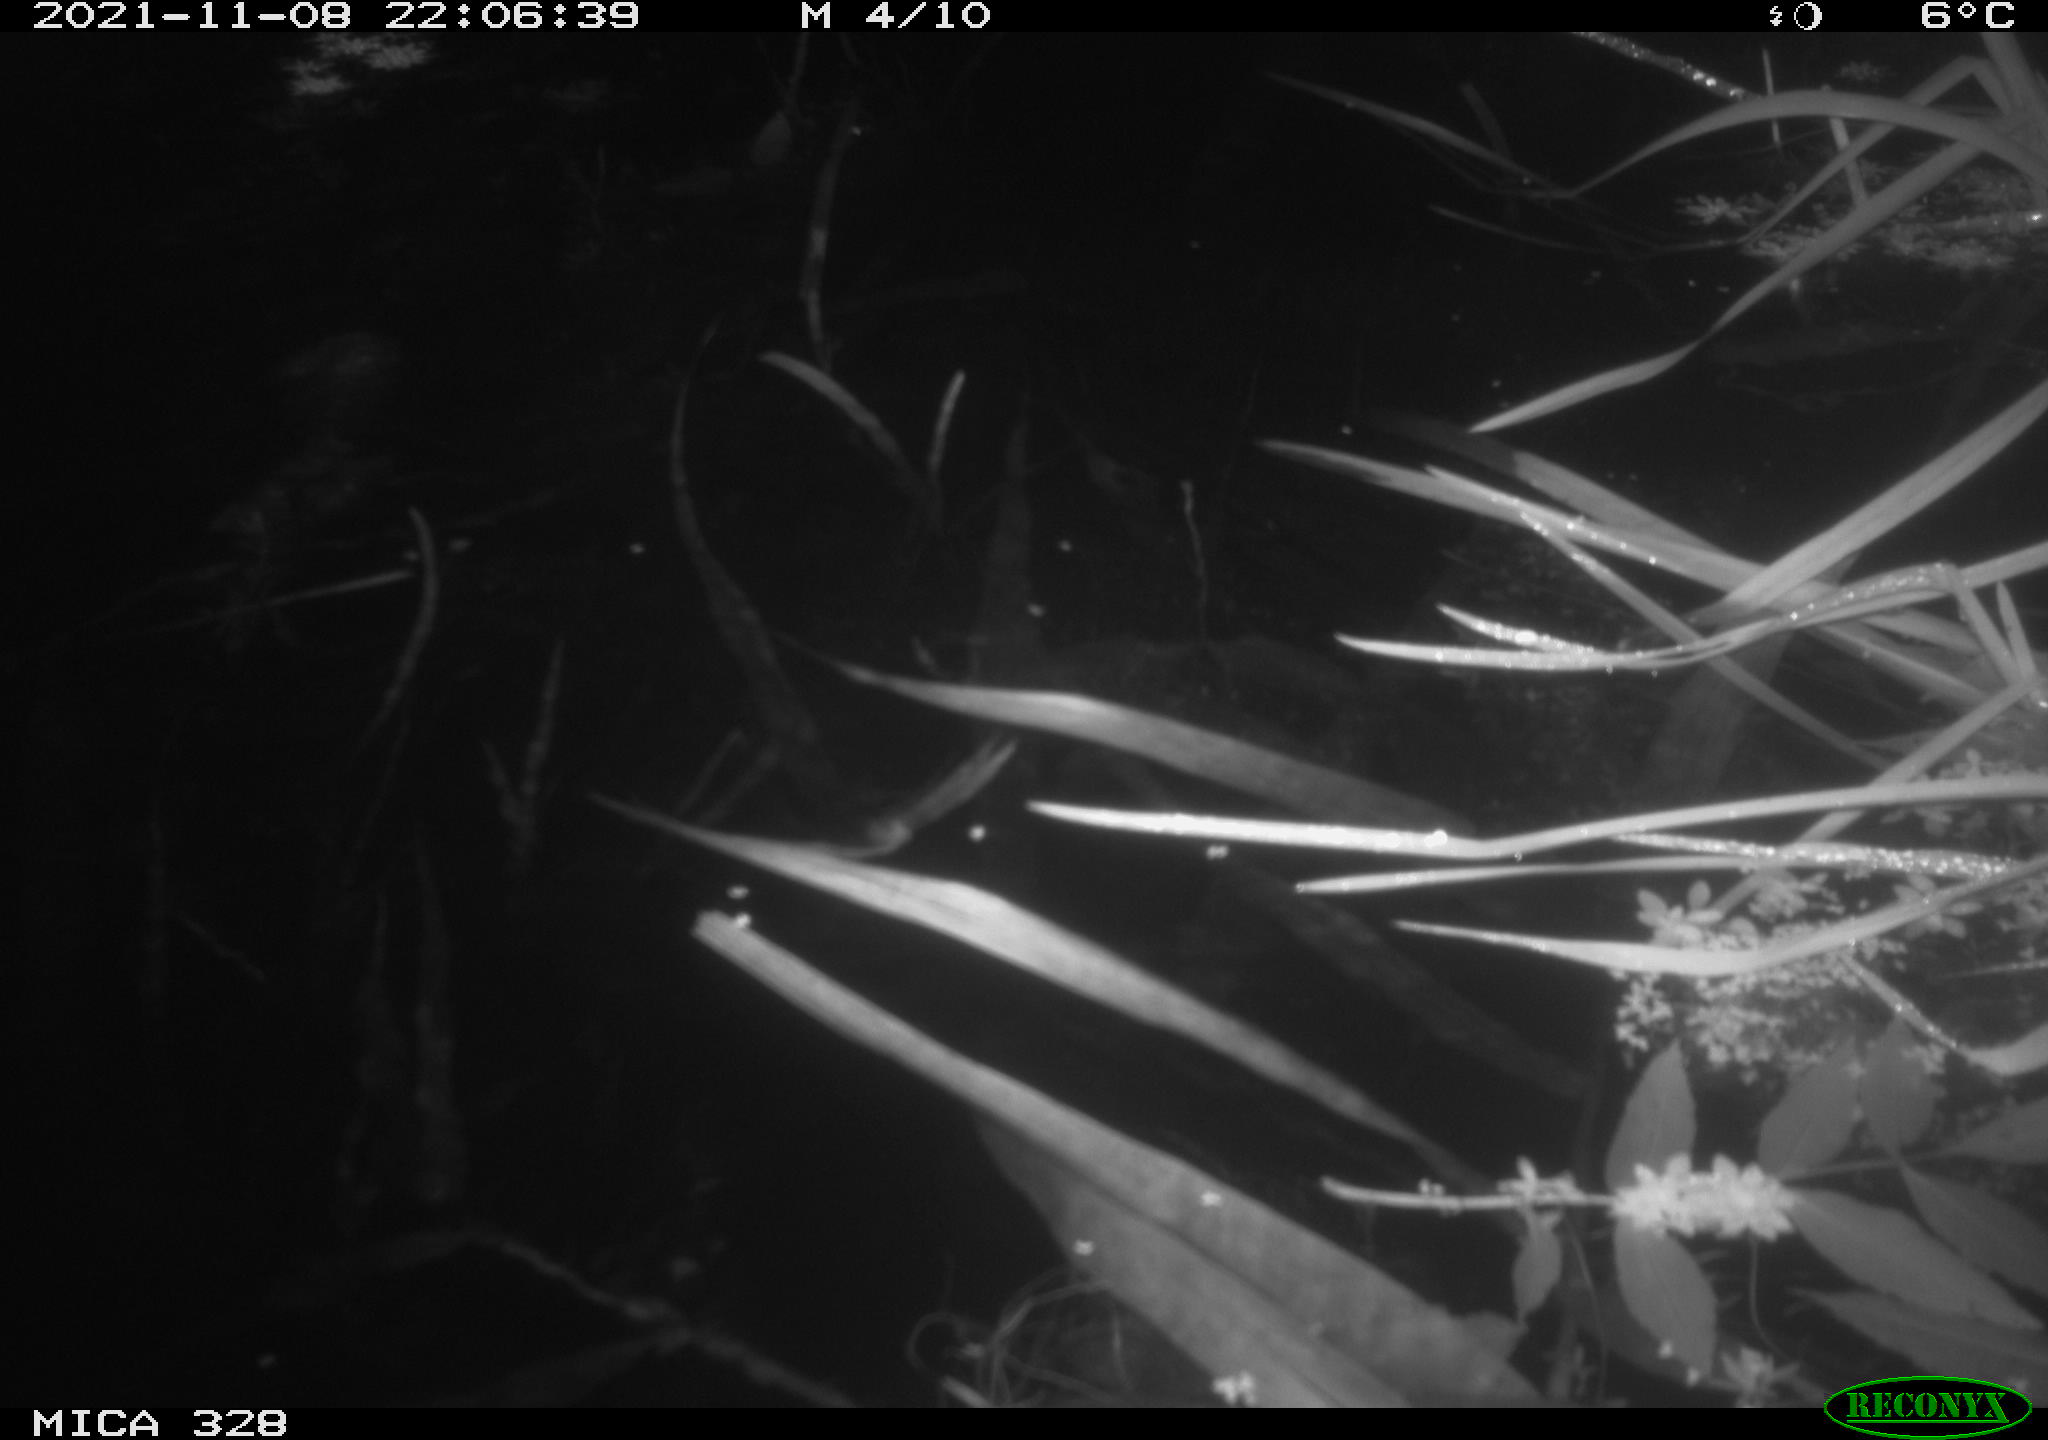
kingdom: Animalia
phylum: Chordata
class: Mammalia
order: Rodentia
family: Cricetidae
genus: Ondatra
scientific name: Ondatra zibethicus
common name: Muskrat
